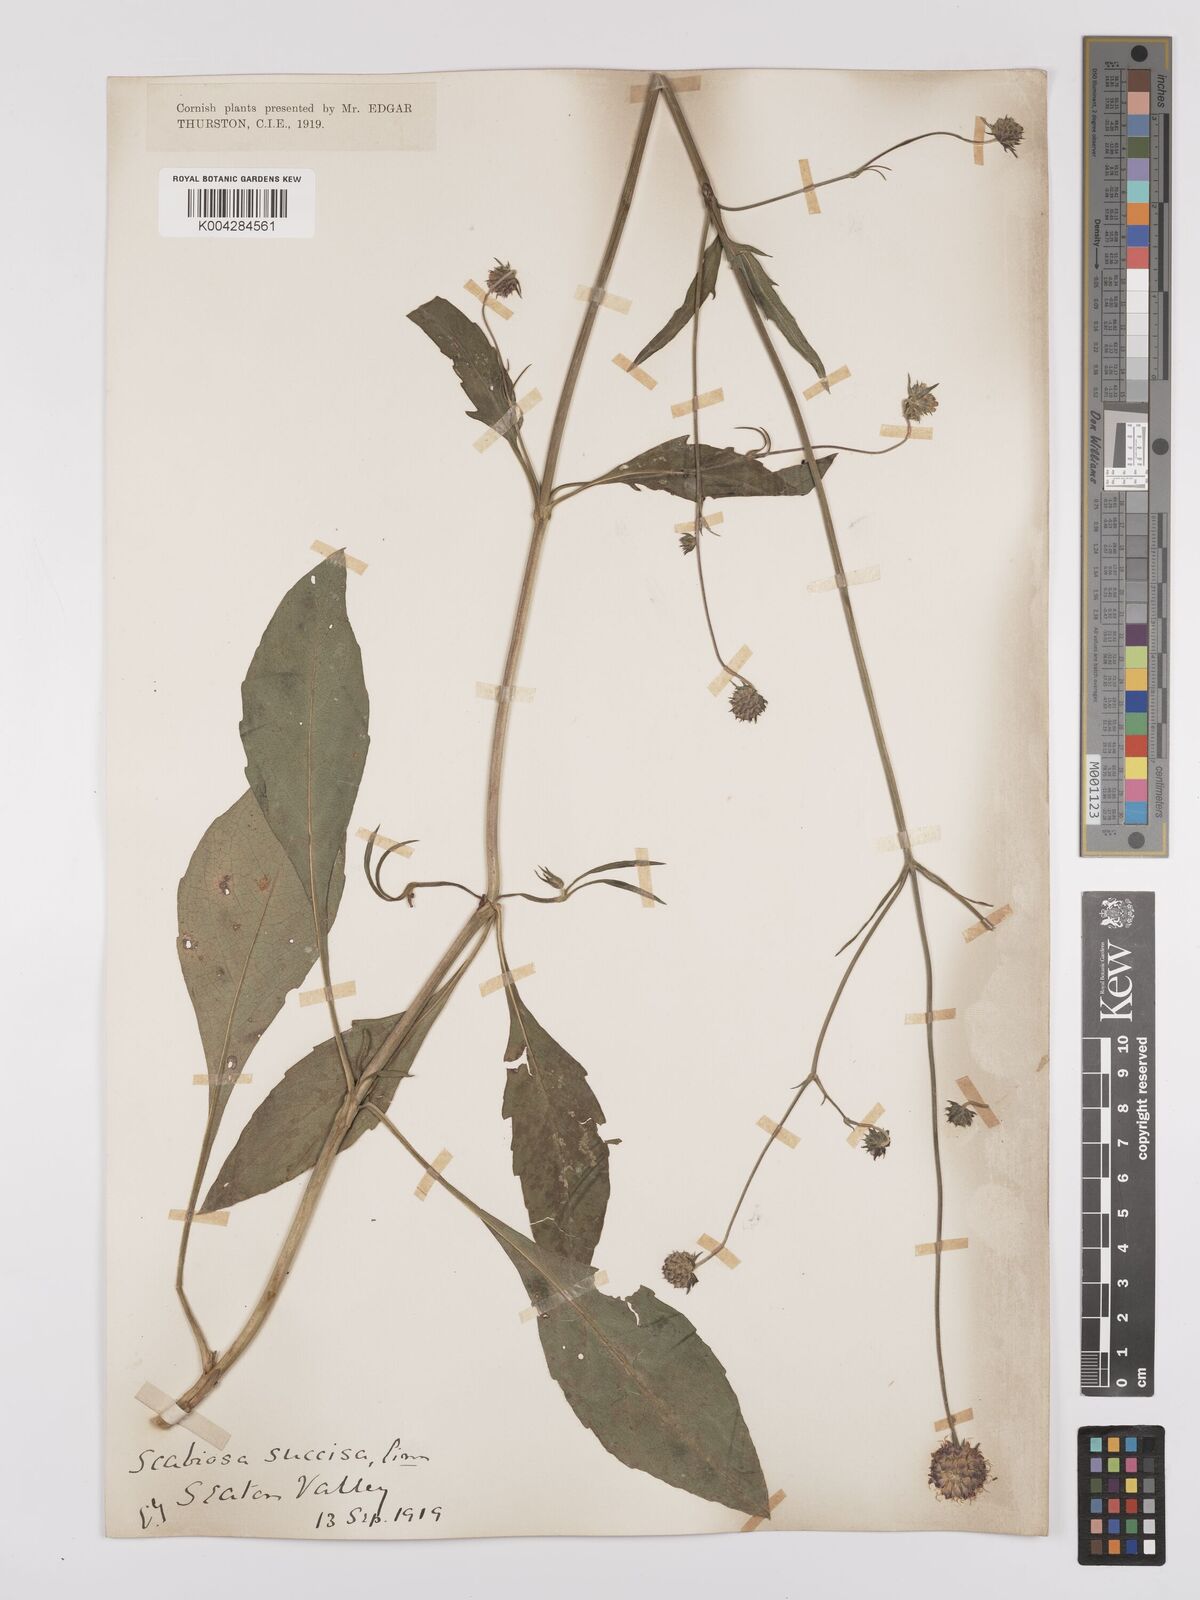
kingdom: Plantae
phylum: Tracheophyta
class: Magnoliopsida
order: Dipsacales
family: Caprifoliaceae
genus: Succisa
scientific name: Succisa pratensis
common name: Devil's-bit
